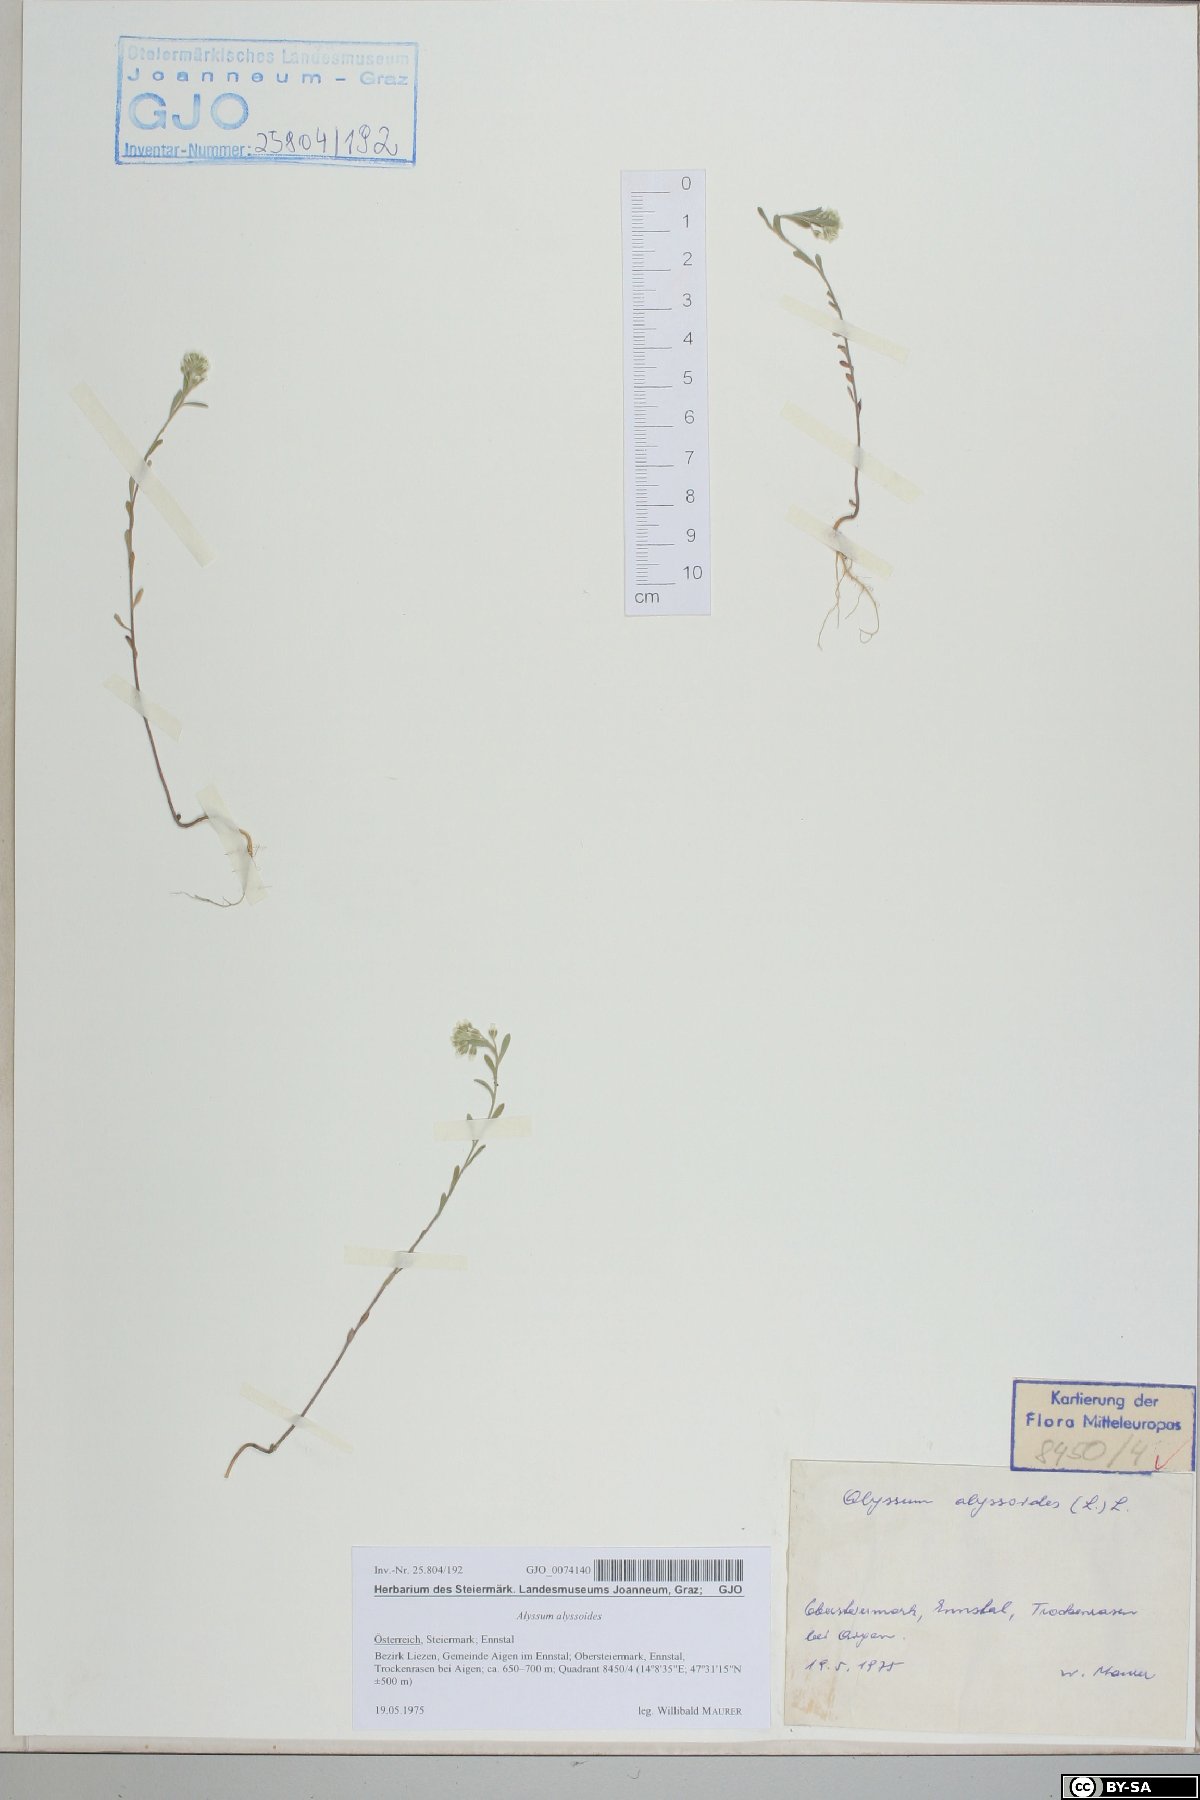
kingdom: Plantae
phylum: Tracheophyta
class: Magnoliopsida
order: Brassicales
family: Brassicaceae
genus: Alyssum
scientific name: Alyssum alyssoides
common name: Small alison
